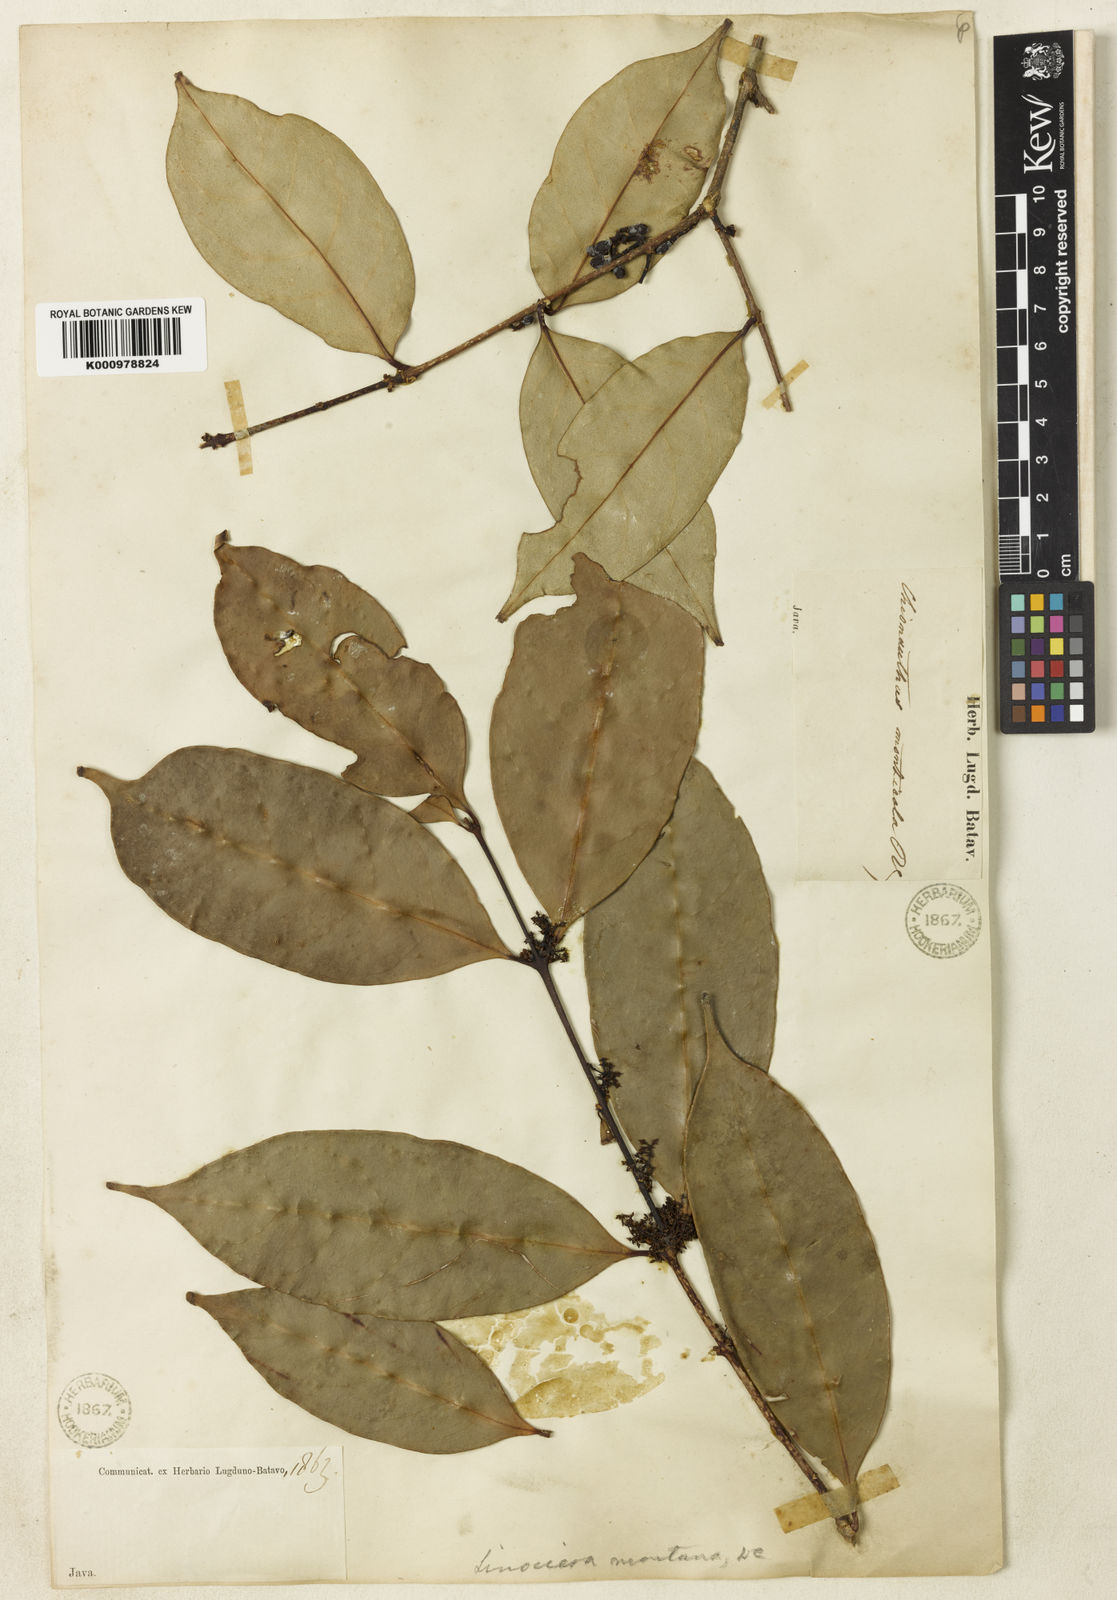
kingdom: Plantae
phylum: Tracheophyta
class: Magnoliopsida
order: Lamiales
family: Oleaceae
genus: Chionanthus
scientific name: Chionanthus montanus
